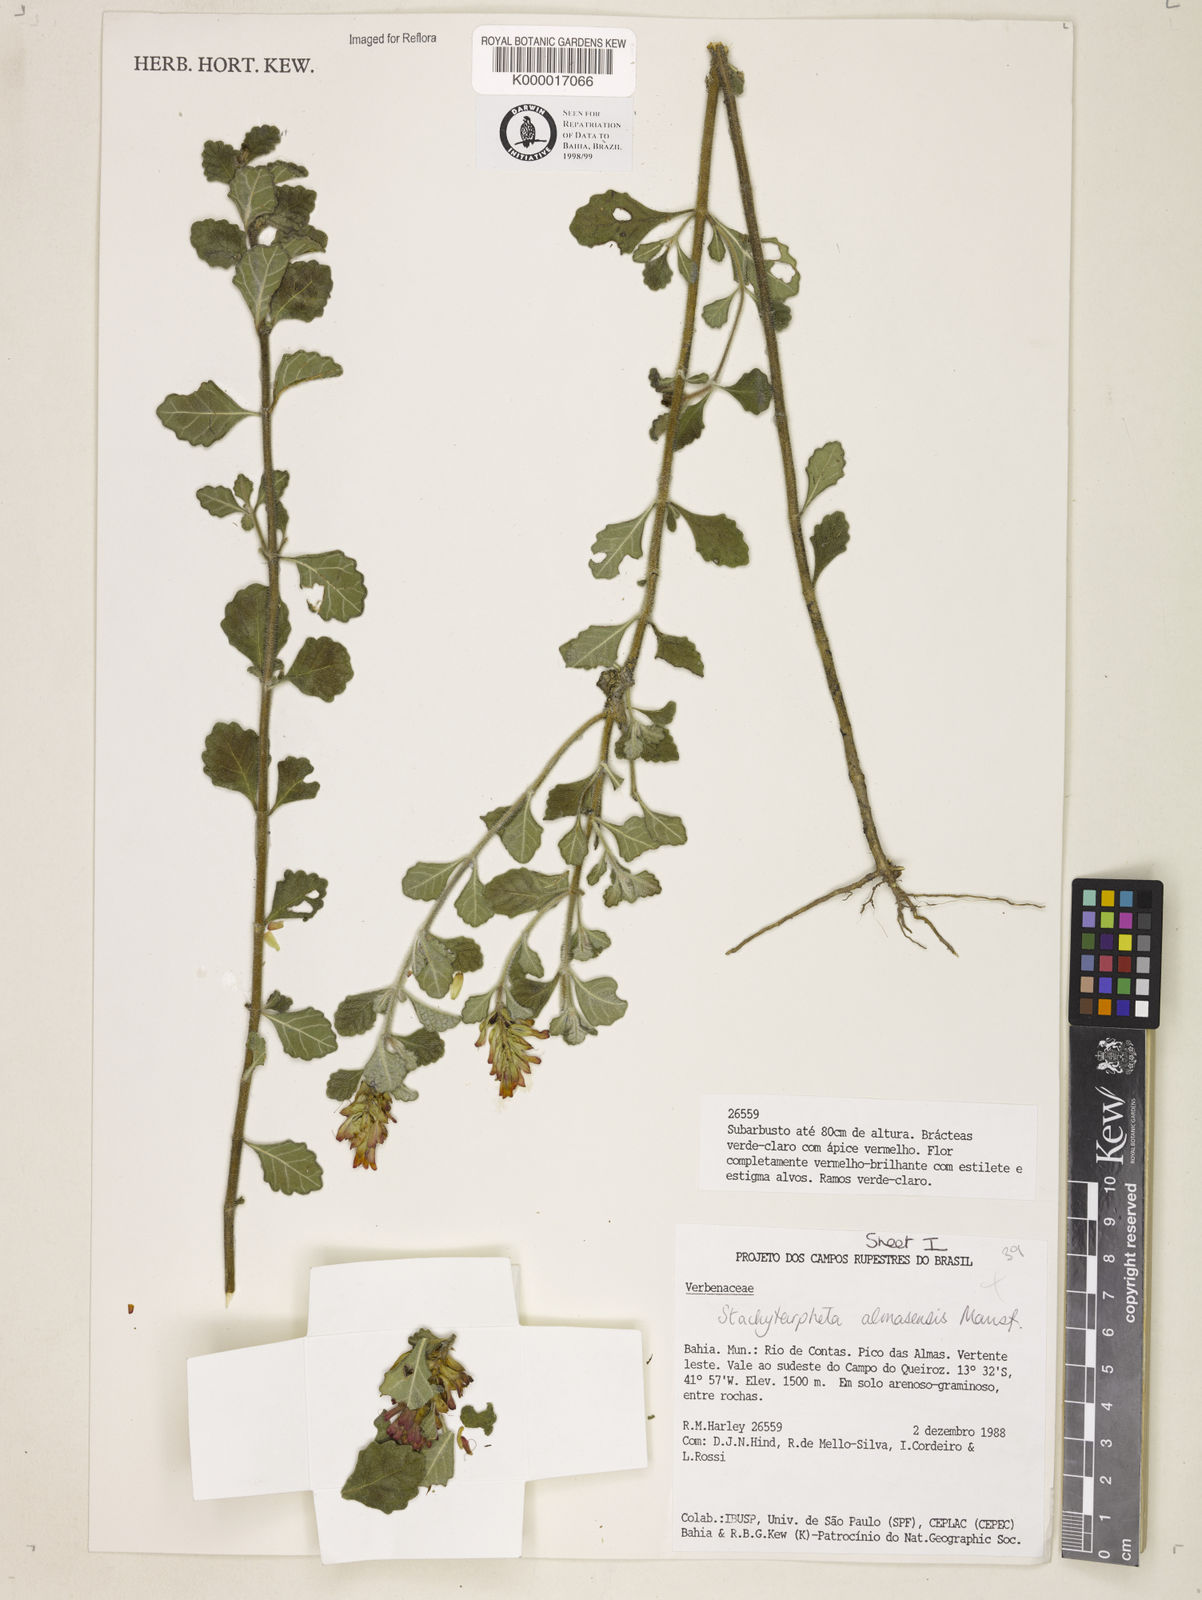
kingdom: Plantae
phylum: Tracheophyta
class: Magnoliopsida
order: Lamiales
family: Verbenaceae
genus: Stachytarpheta
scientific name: Stachytarpheta almasensis
